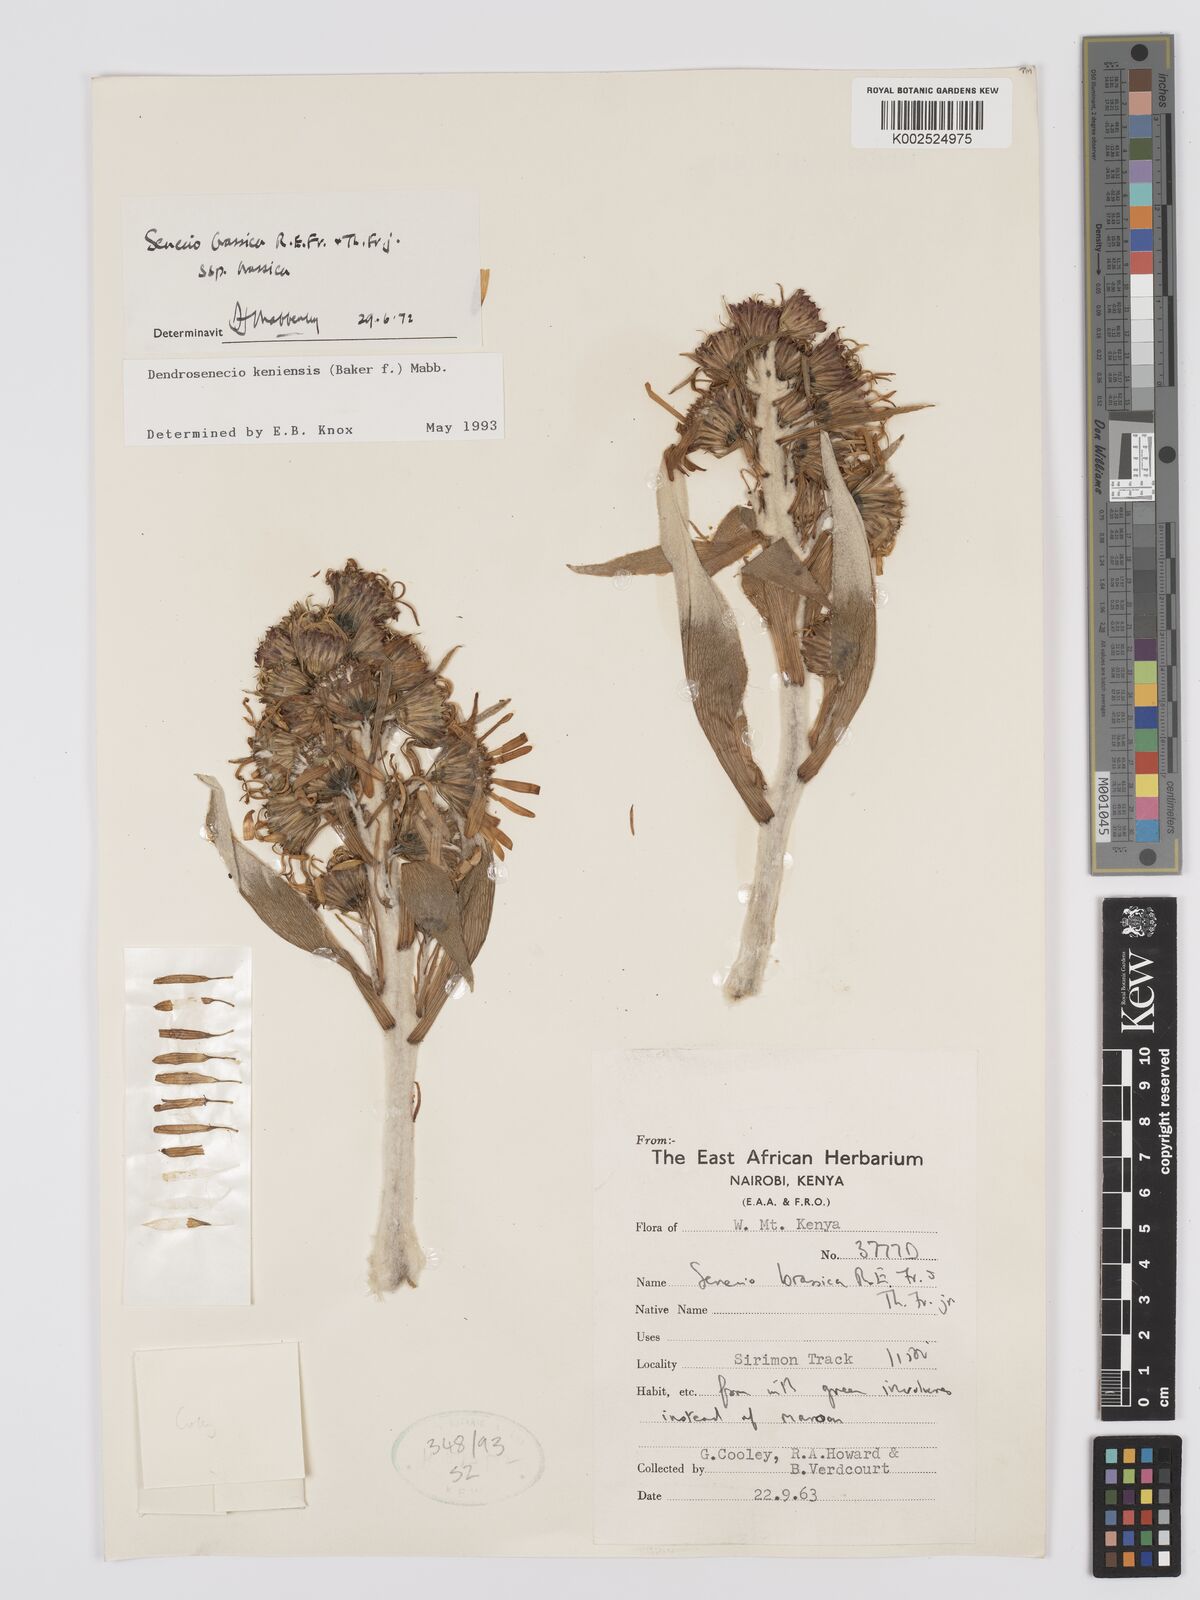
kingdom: Plantae
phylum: Tracheophyta
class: Magnoliopsida
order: Asterales
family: Asteraceae
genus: Dendrosenecio
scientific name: Dendrosenecio keniensis
